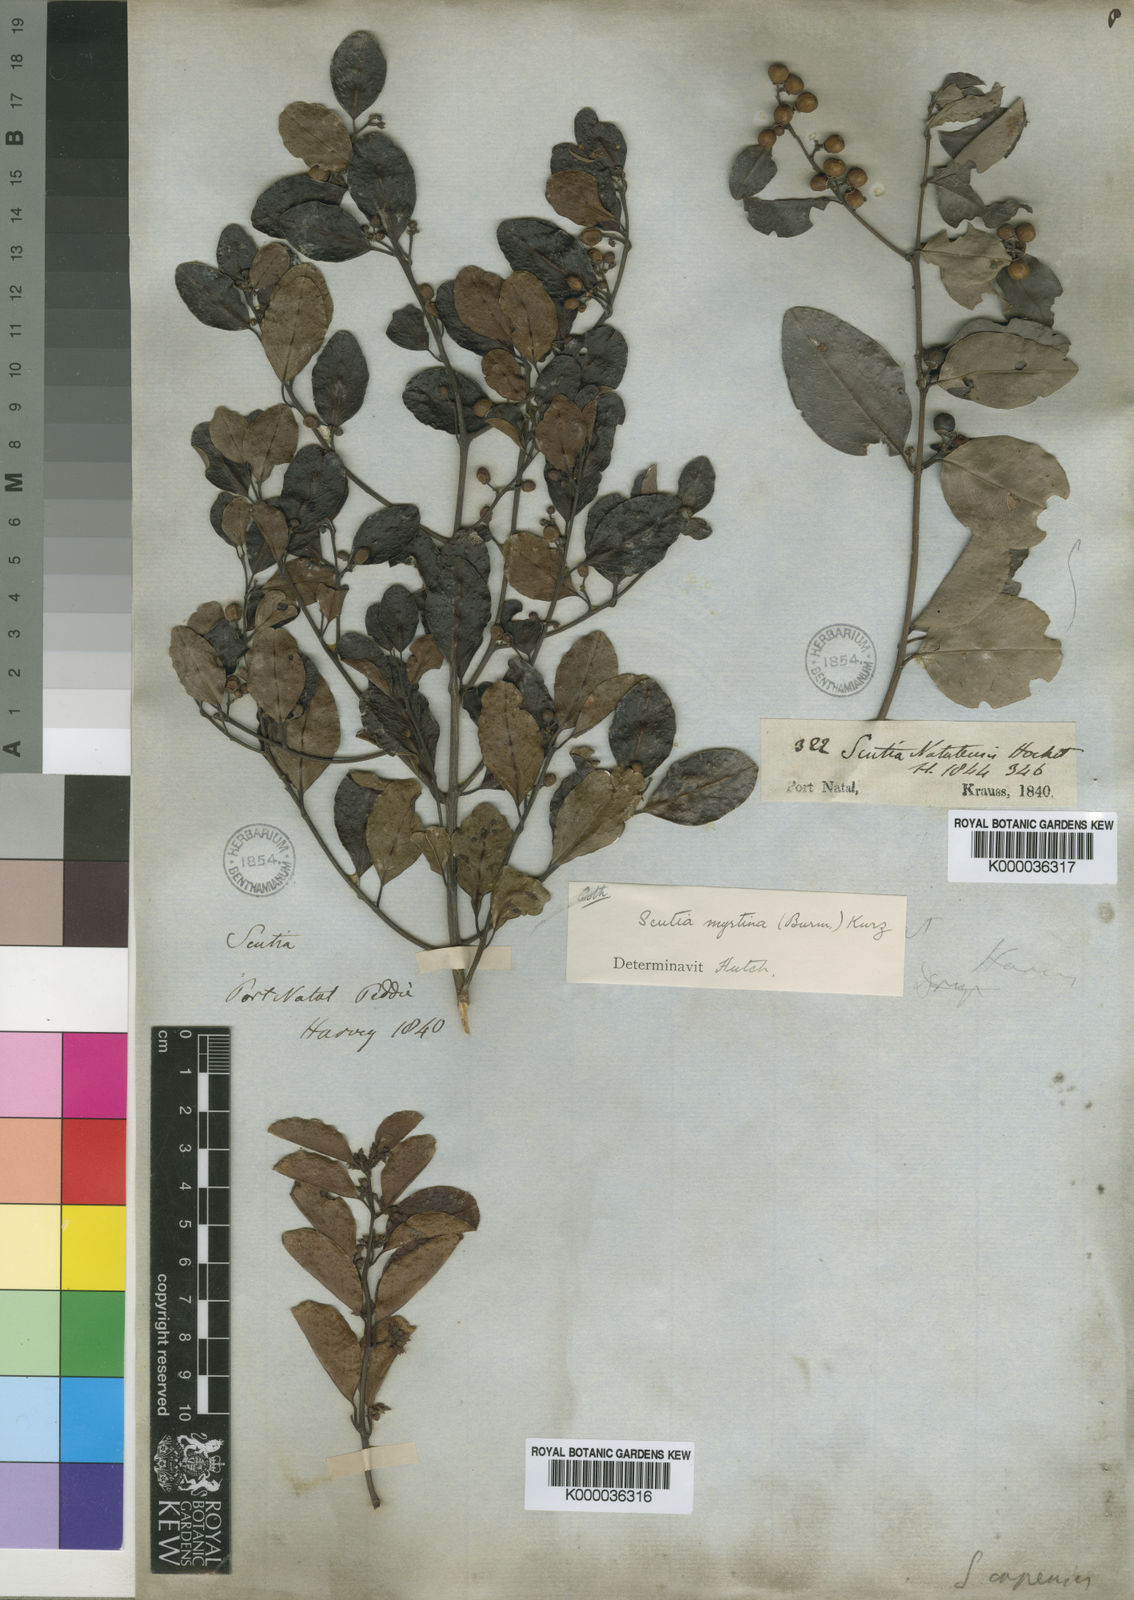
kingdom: Plantae
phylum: Tracheophyta
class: Magnoliopsida
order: Rosales
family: Rhamnaceae
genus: Scutia
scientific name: Scutia myrtina
